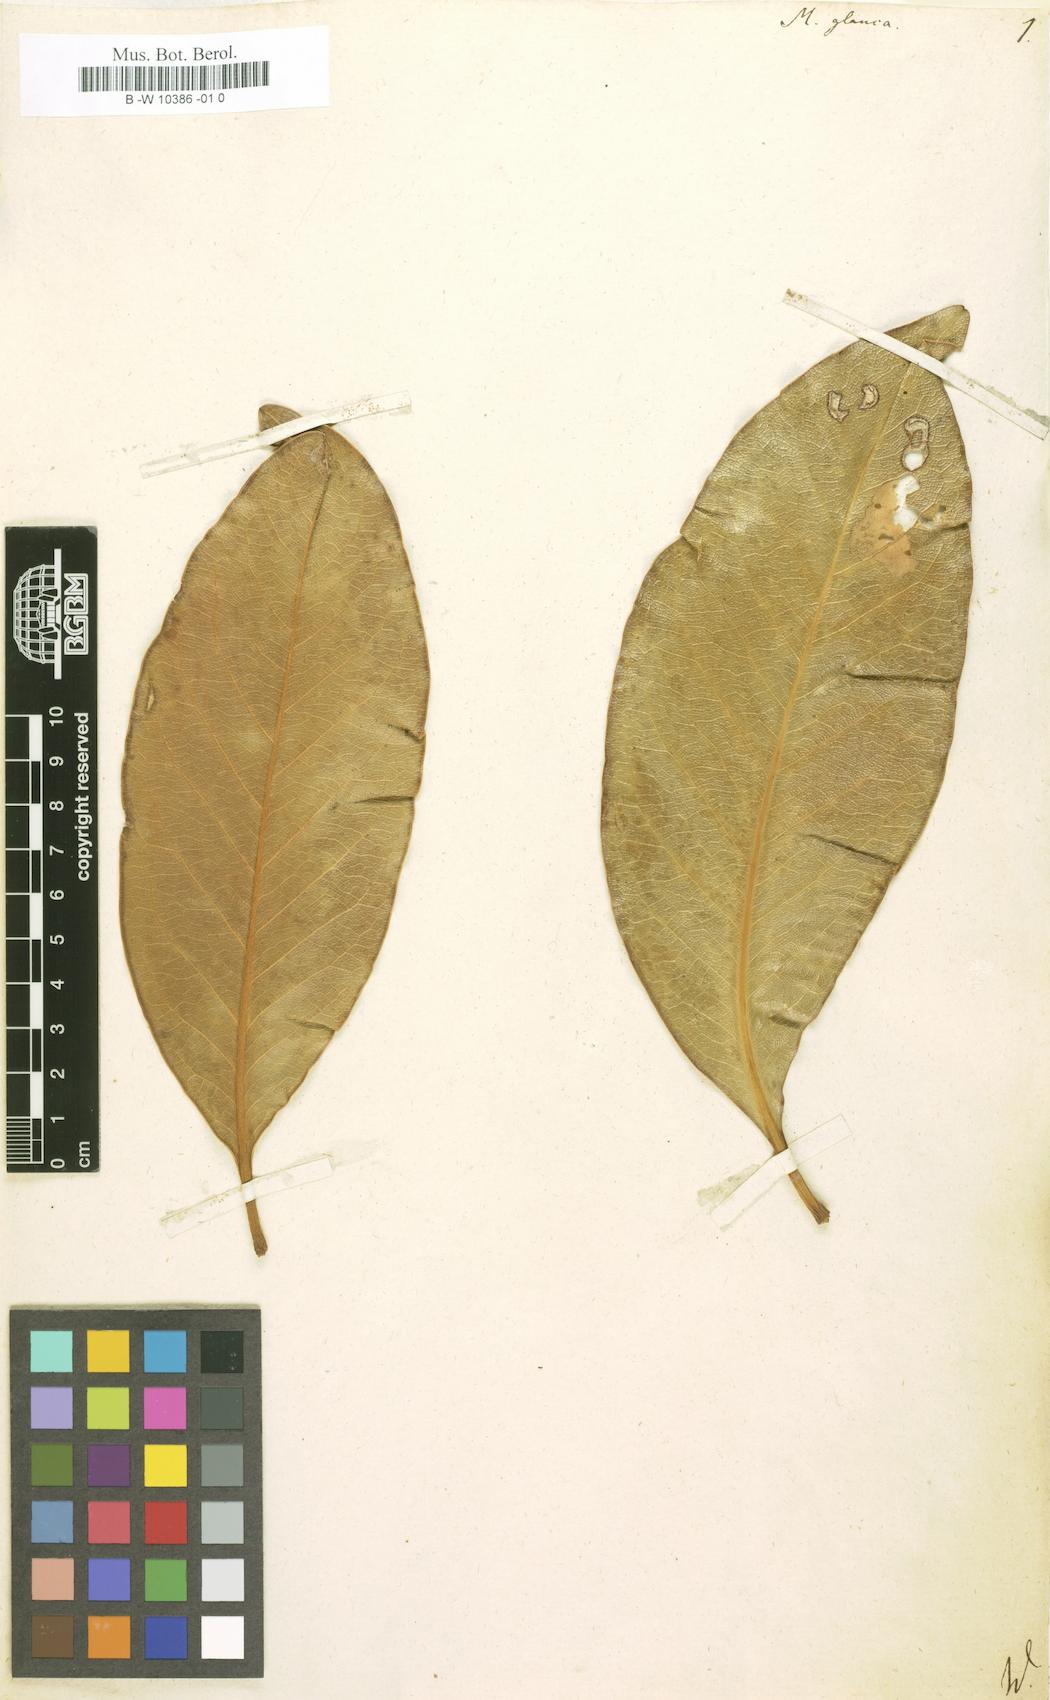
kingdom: Plantae
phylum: Tracheophyta
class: Magnoliopsida
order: Magnoliales
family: Magnoliaceae
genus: Magnolia
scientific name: Magnolia
